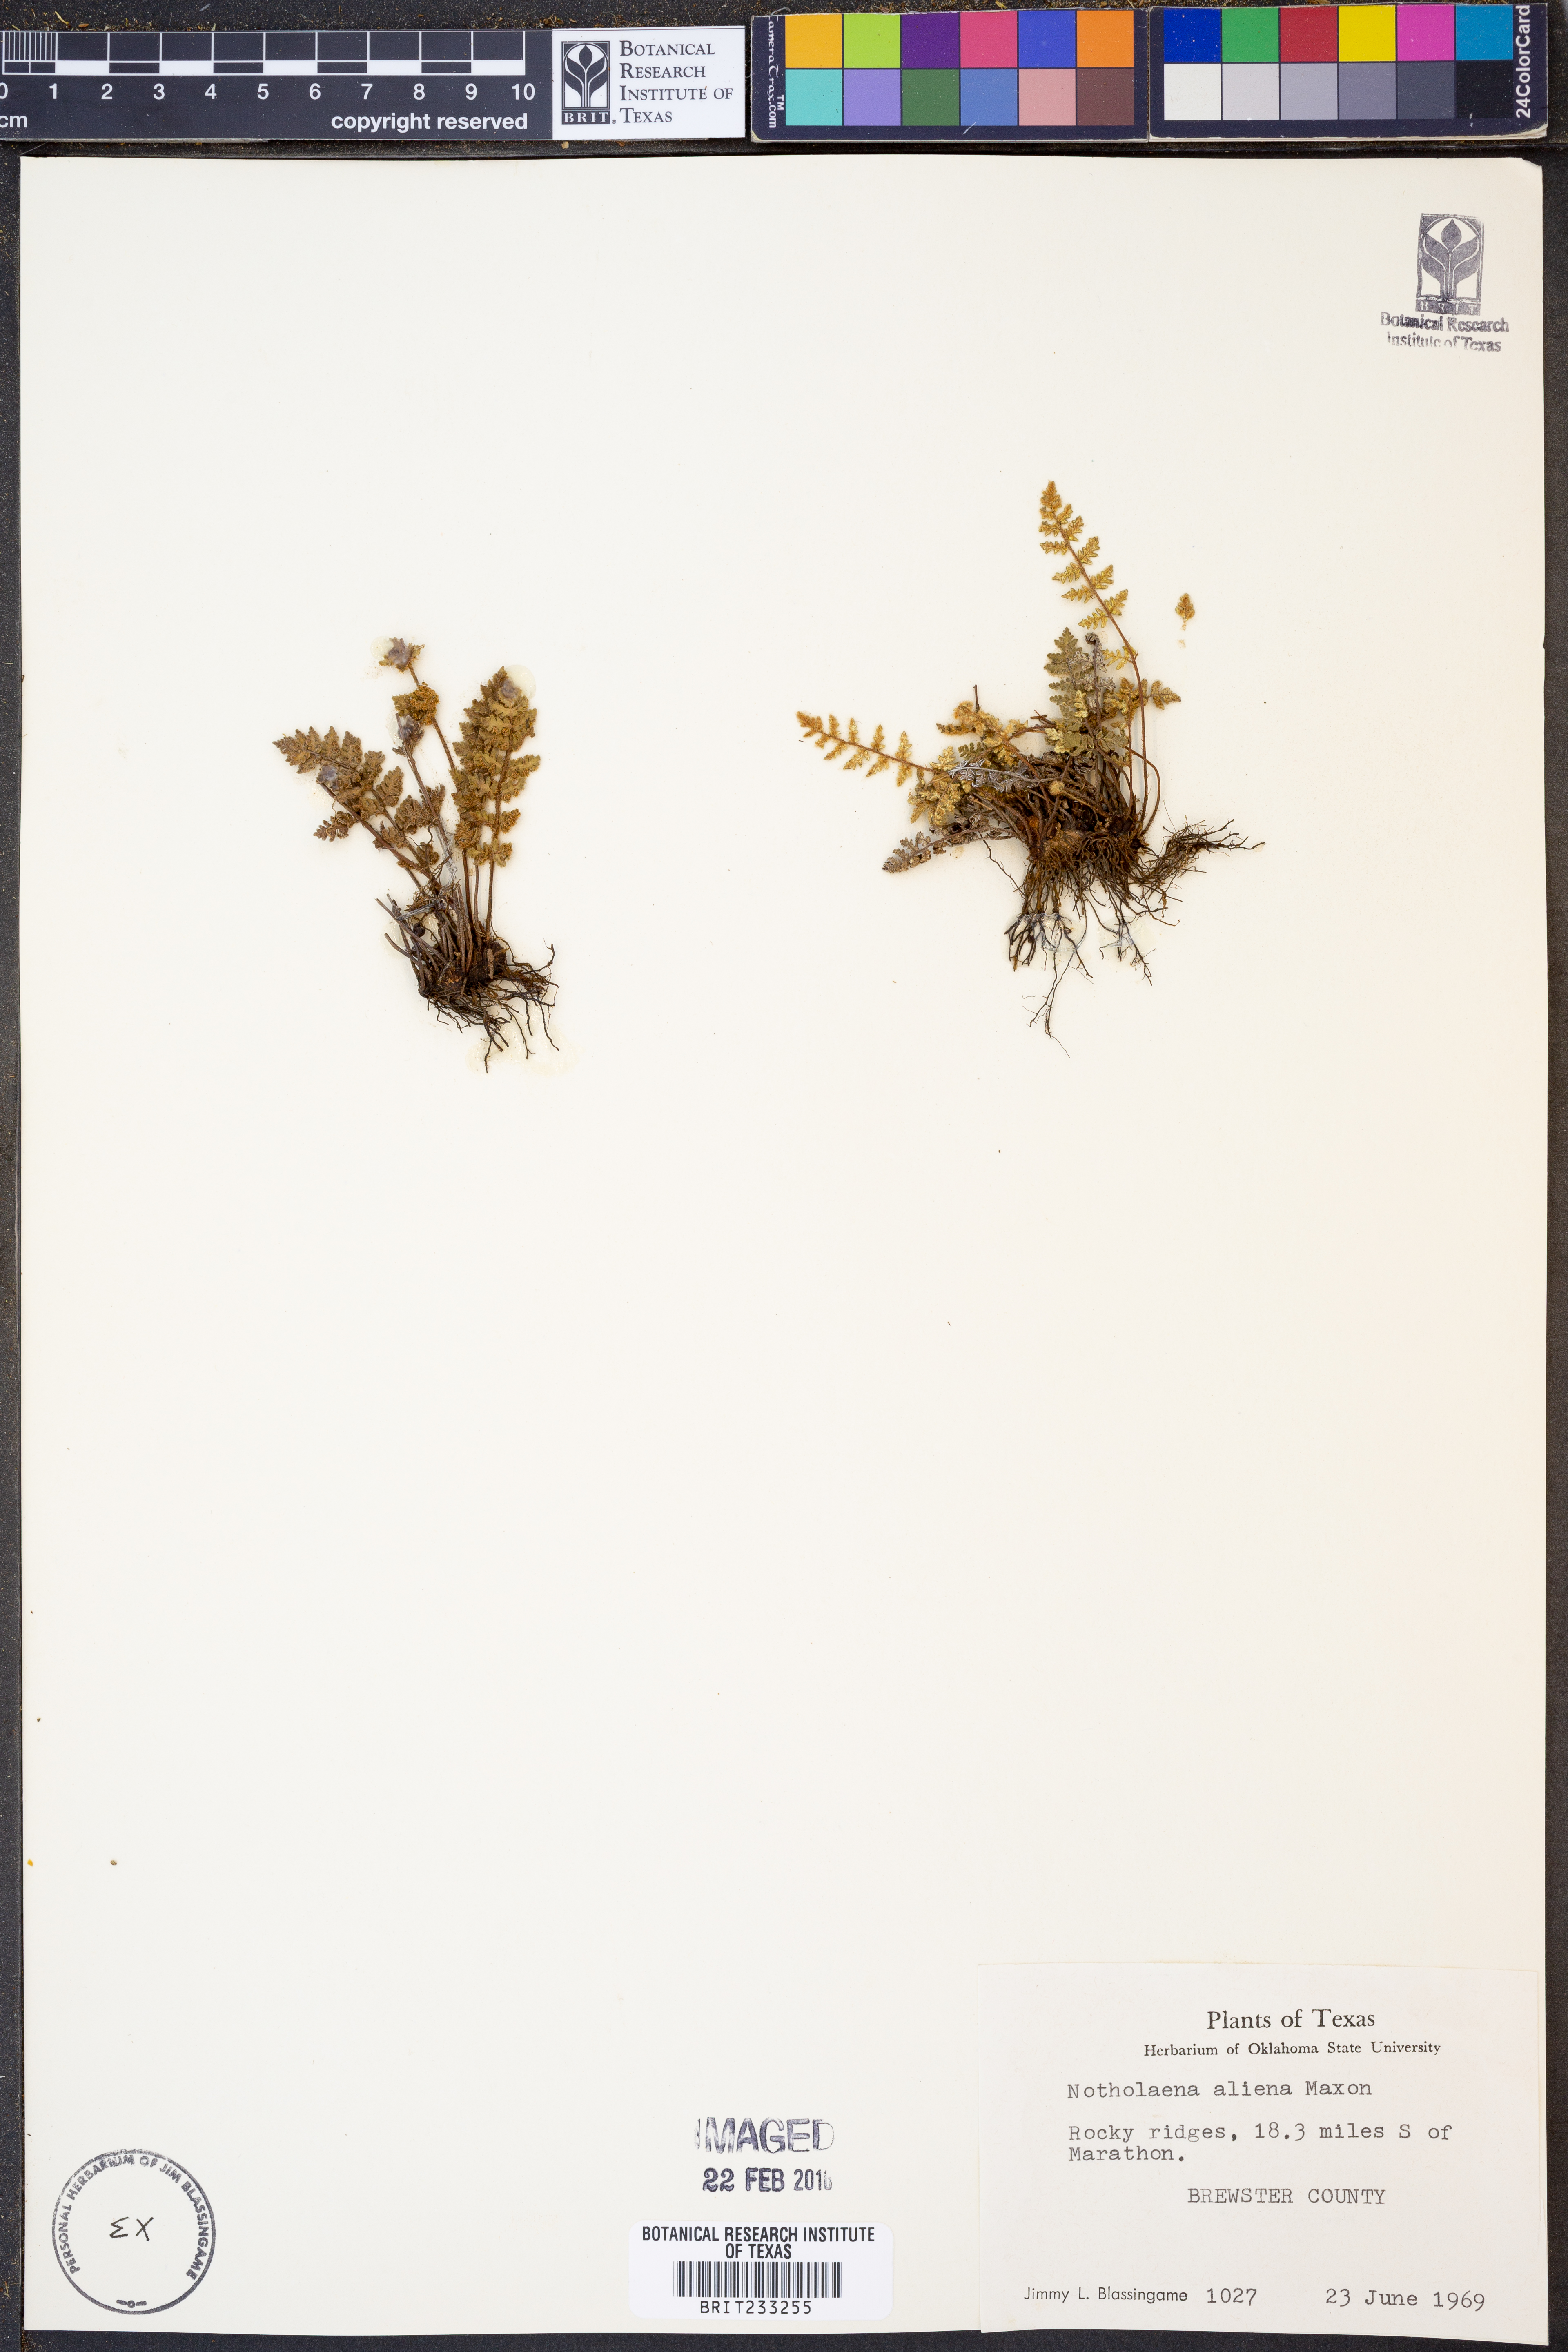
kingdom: Plantae
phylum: Tracheophyta
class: Polypodiopsida
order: Polypodiales
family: Pteridaceae
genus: Notholaena
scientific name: Notholaena aliena
